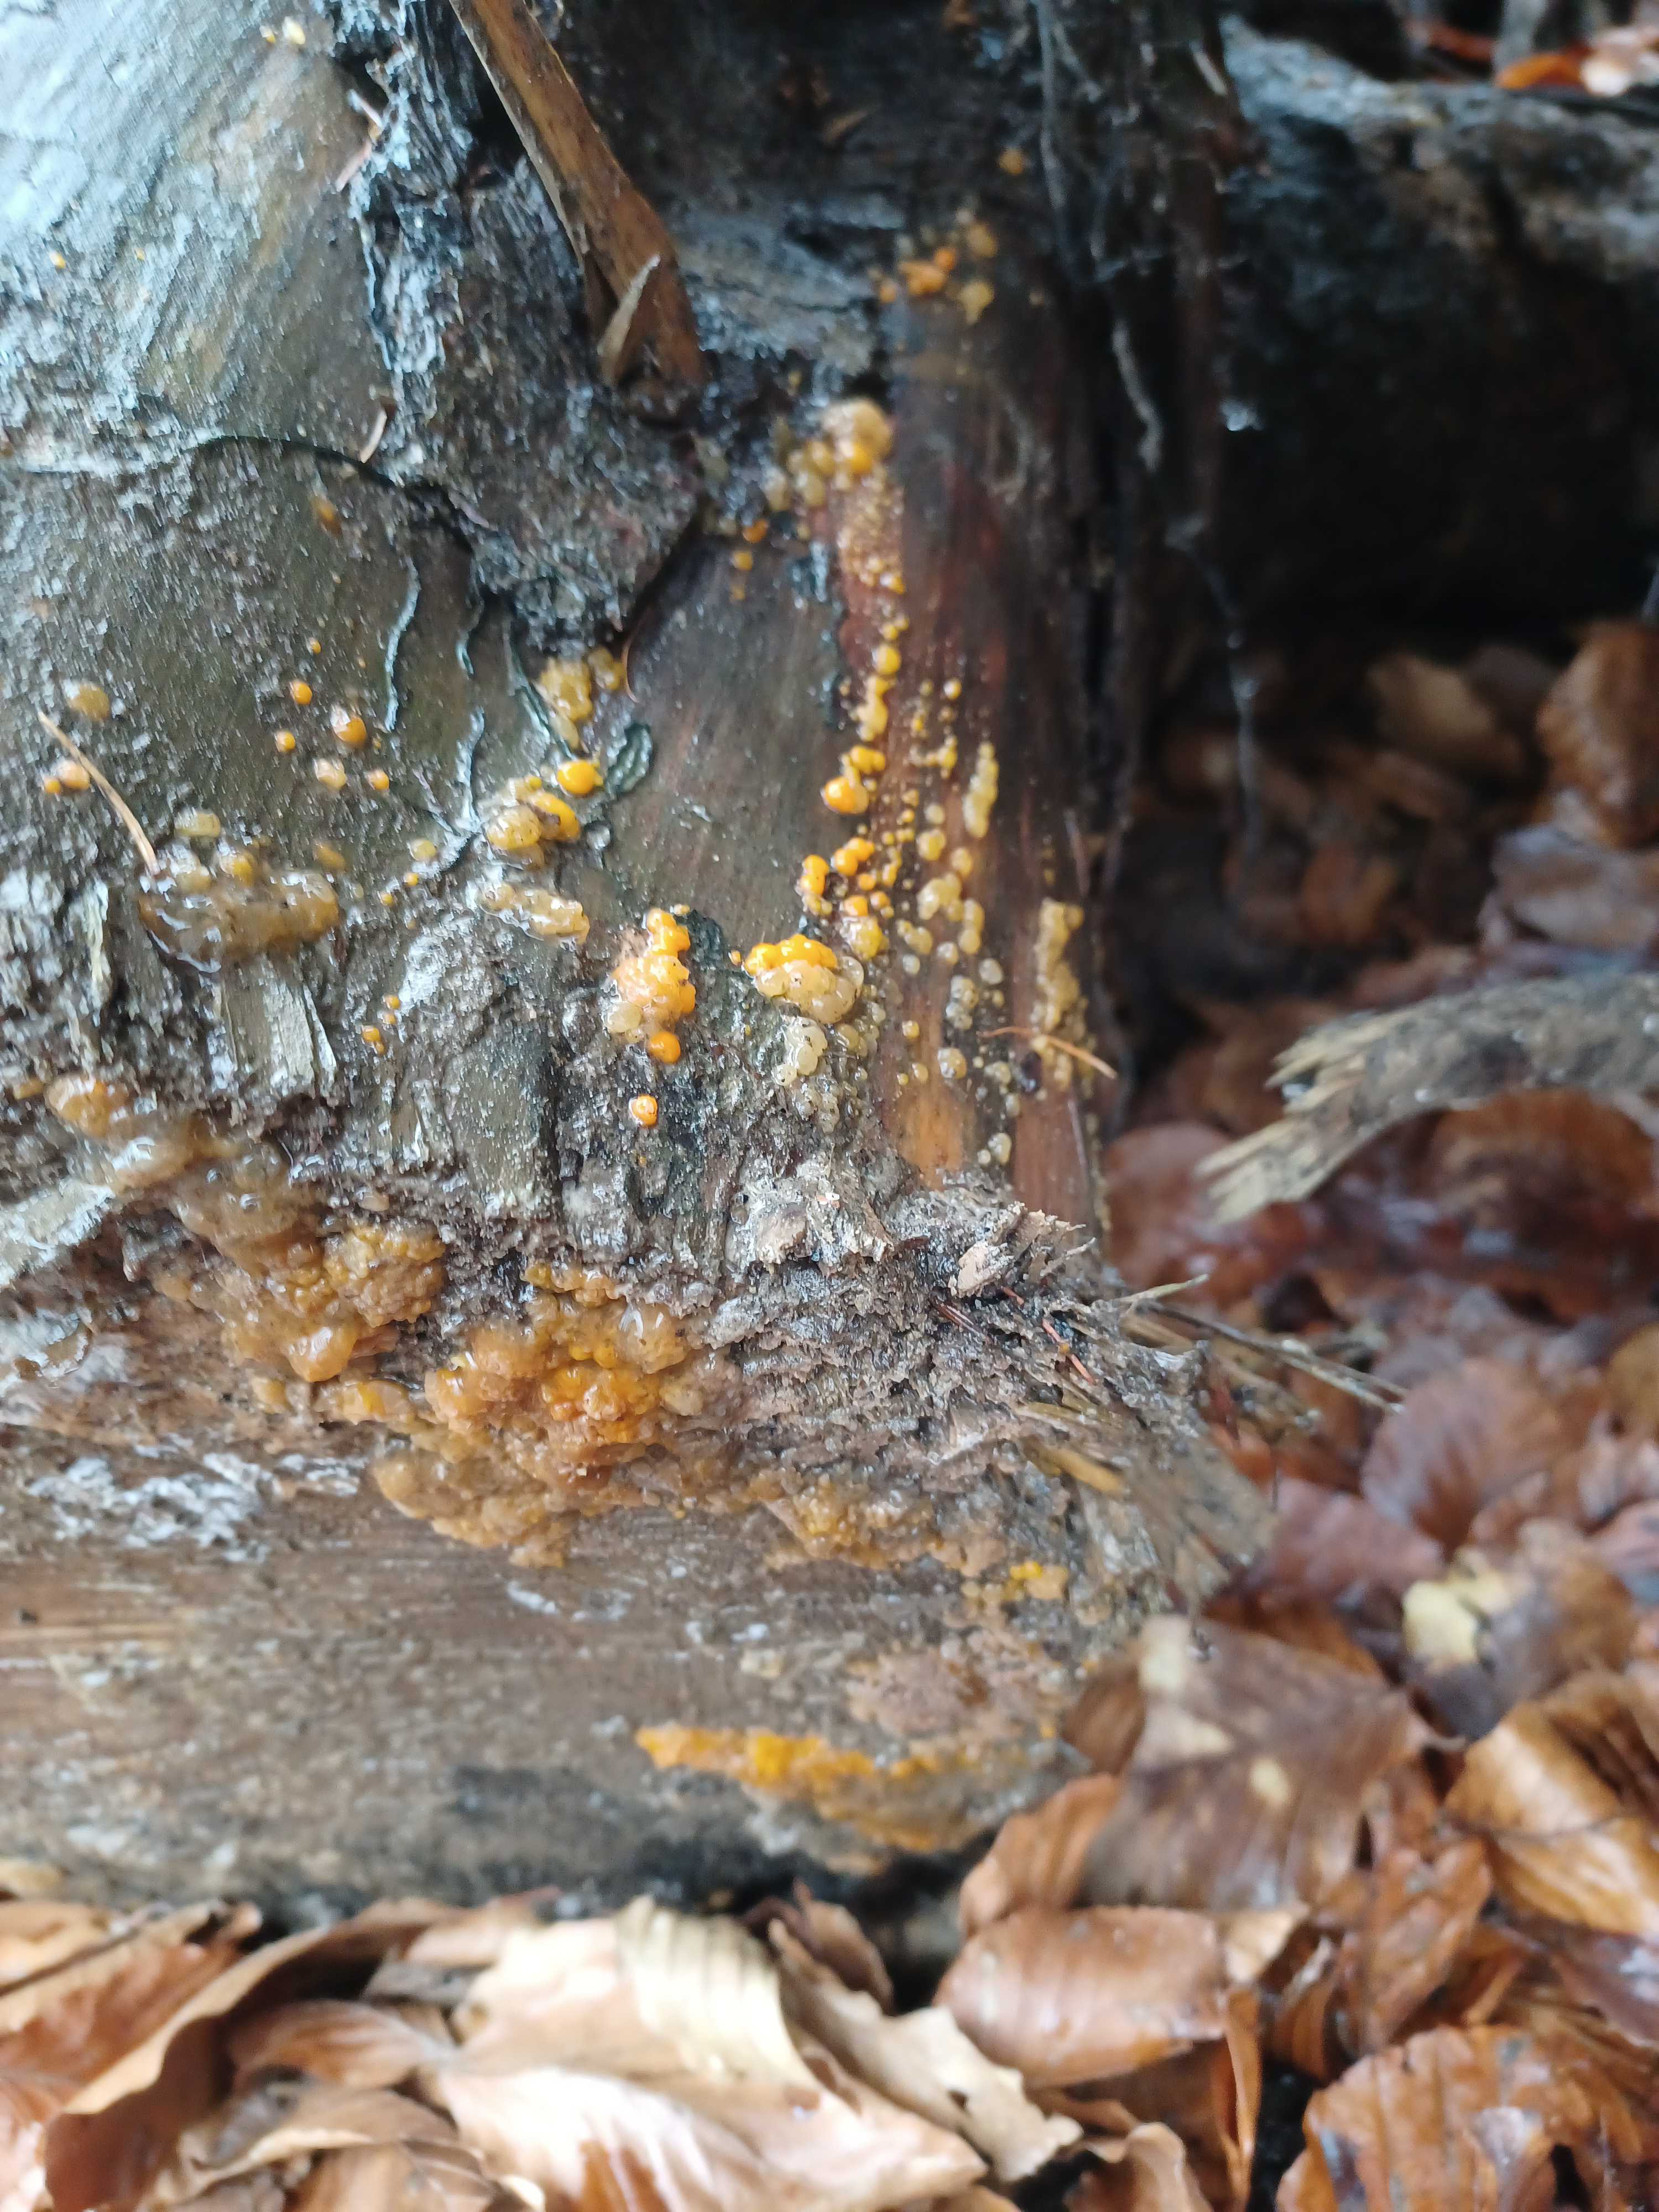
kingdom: Fungi
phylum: Basidiomycota
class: Dacrymycetes
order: Dacrymycetales
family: Dacrymycetaceae
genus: Dacrymyces
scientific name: Dacrymyces stillatus
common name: almindelig tåresvamp
